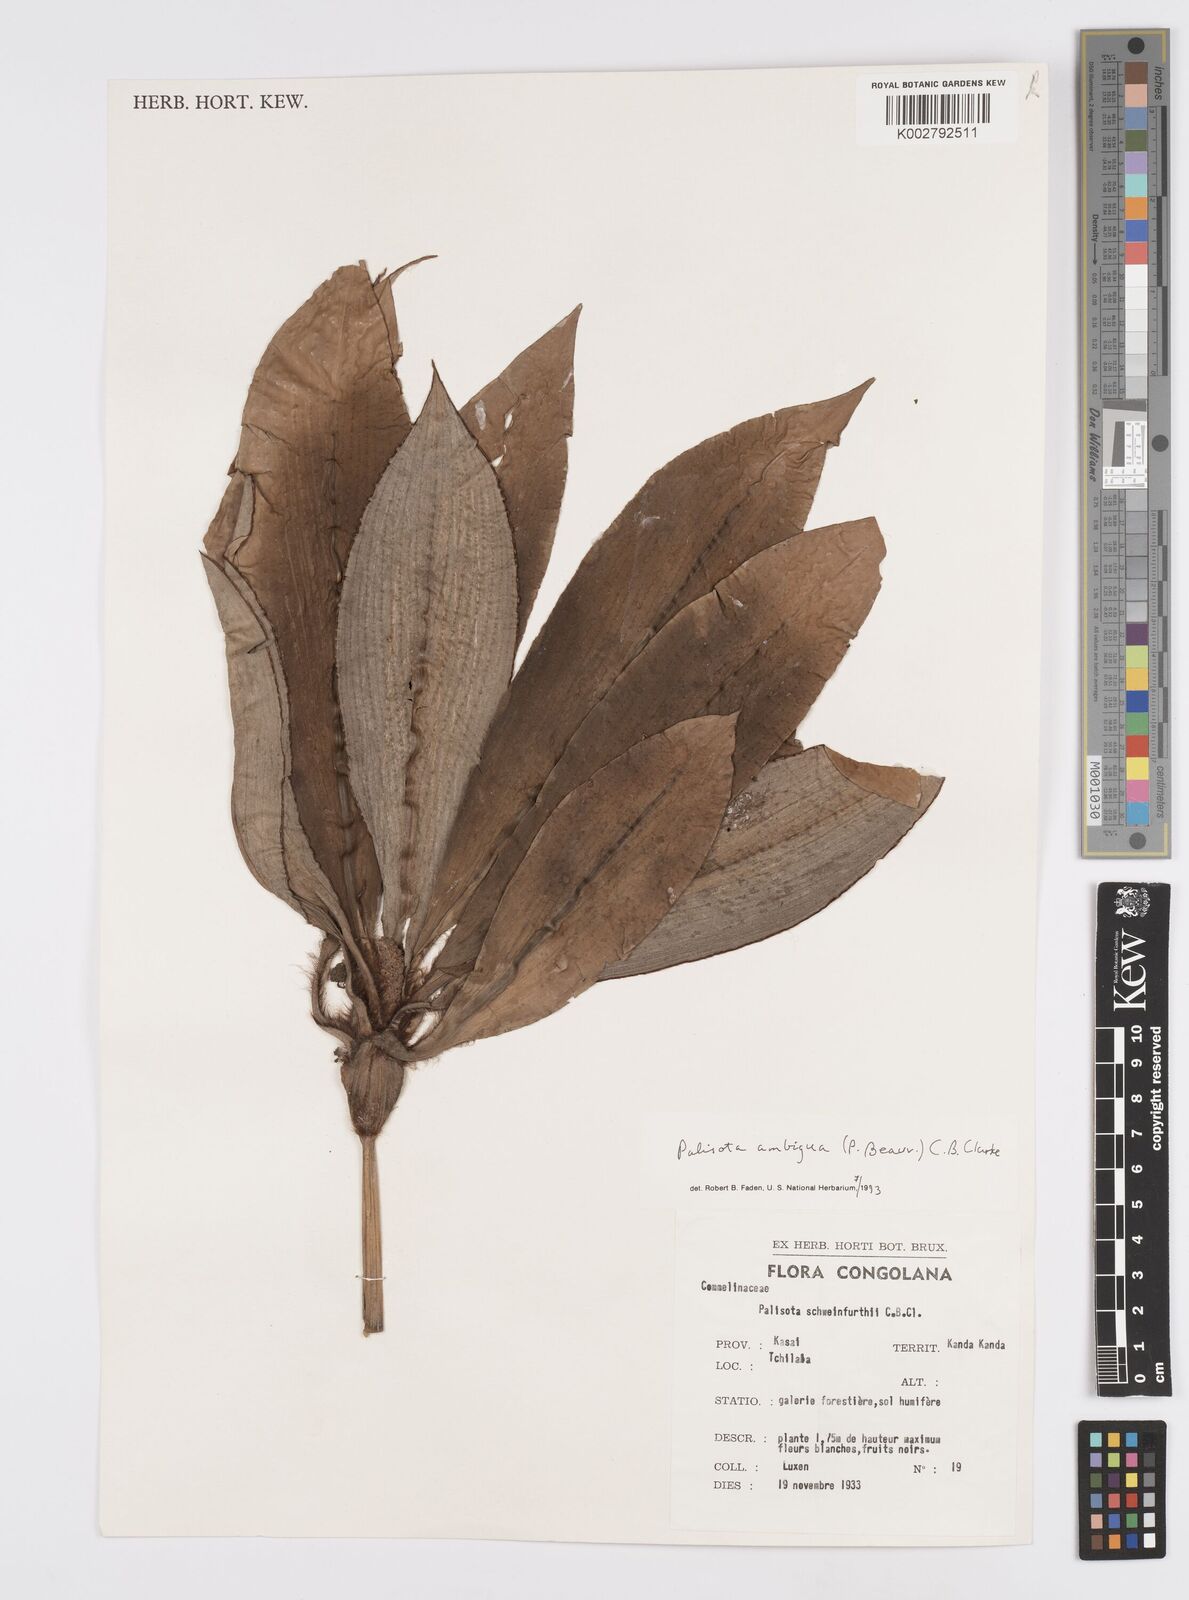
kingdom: Plantae
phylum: Tracheophyta
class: Liliopsida
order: Commelinales
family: Commelinaceae
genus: Palisota
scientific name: Palisota ambigua
